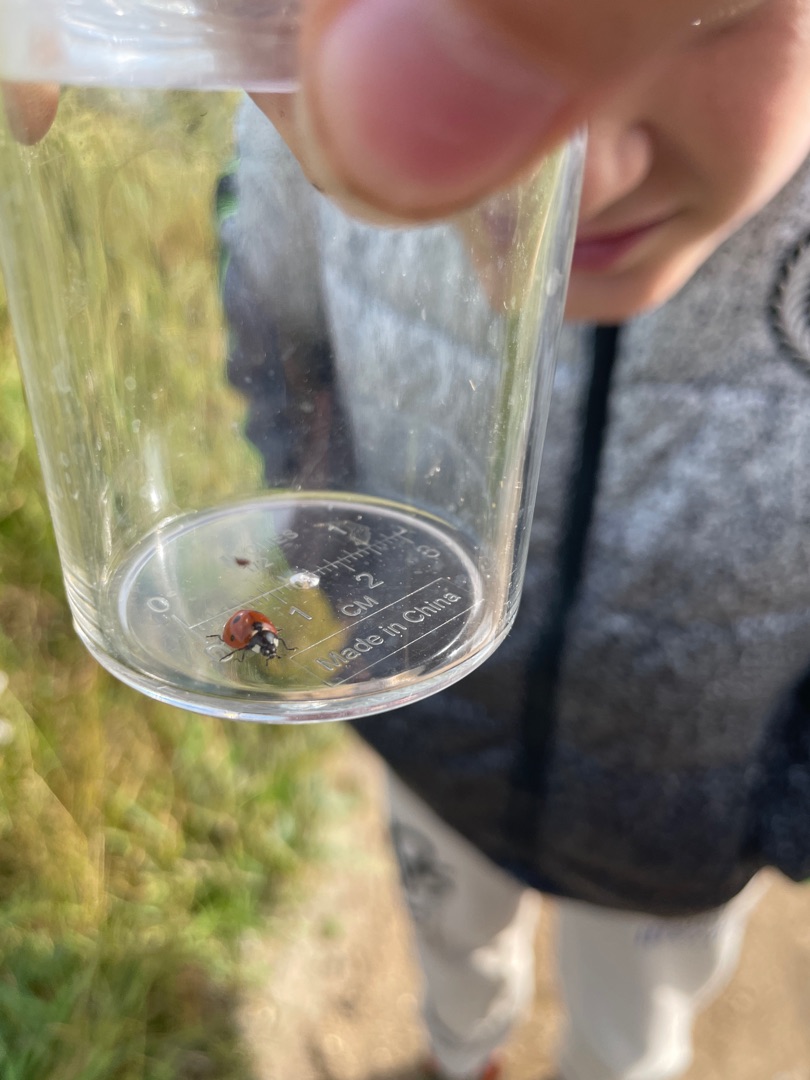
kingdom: Animalia
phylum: Arthropoda
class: Insecta
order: Coleoptera
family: Coccinellidae
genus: Coccinella
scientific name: Coccinella septempunctata
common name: Syvplettet mariehøne
